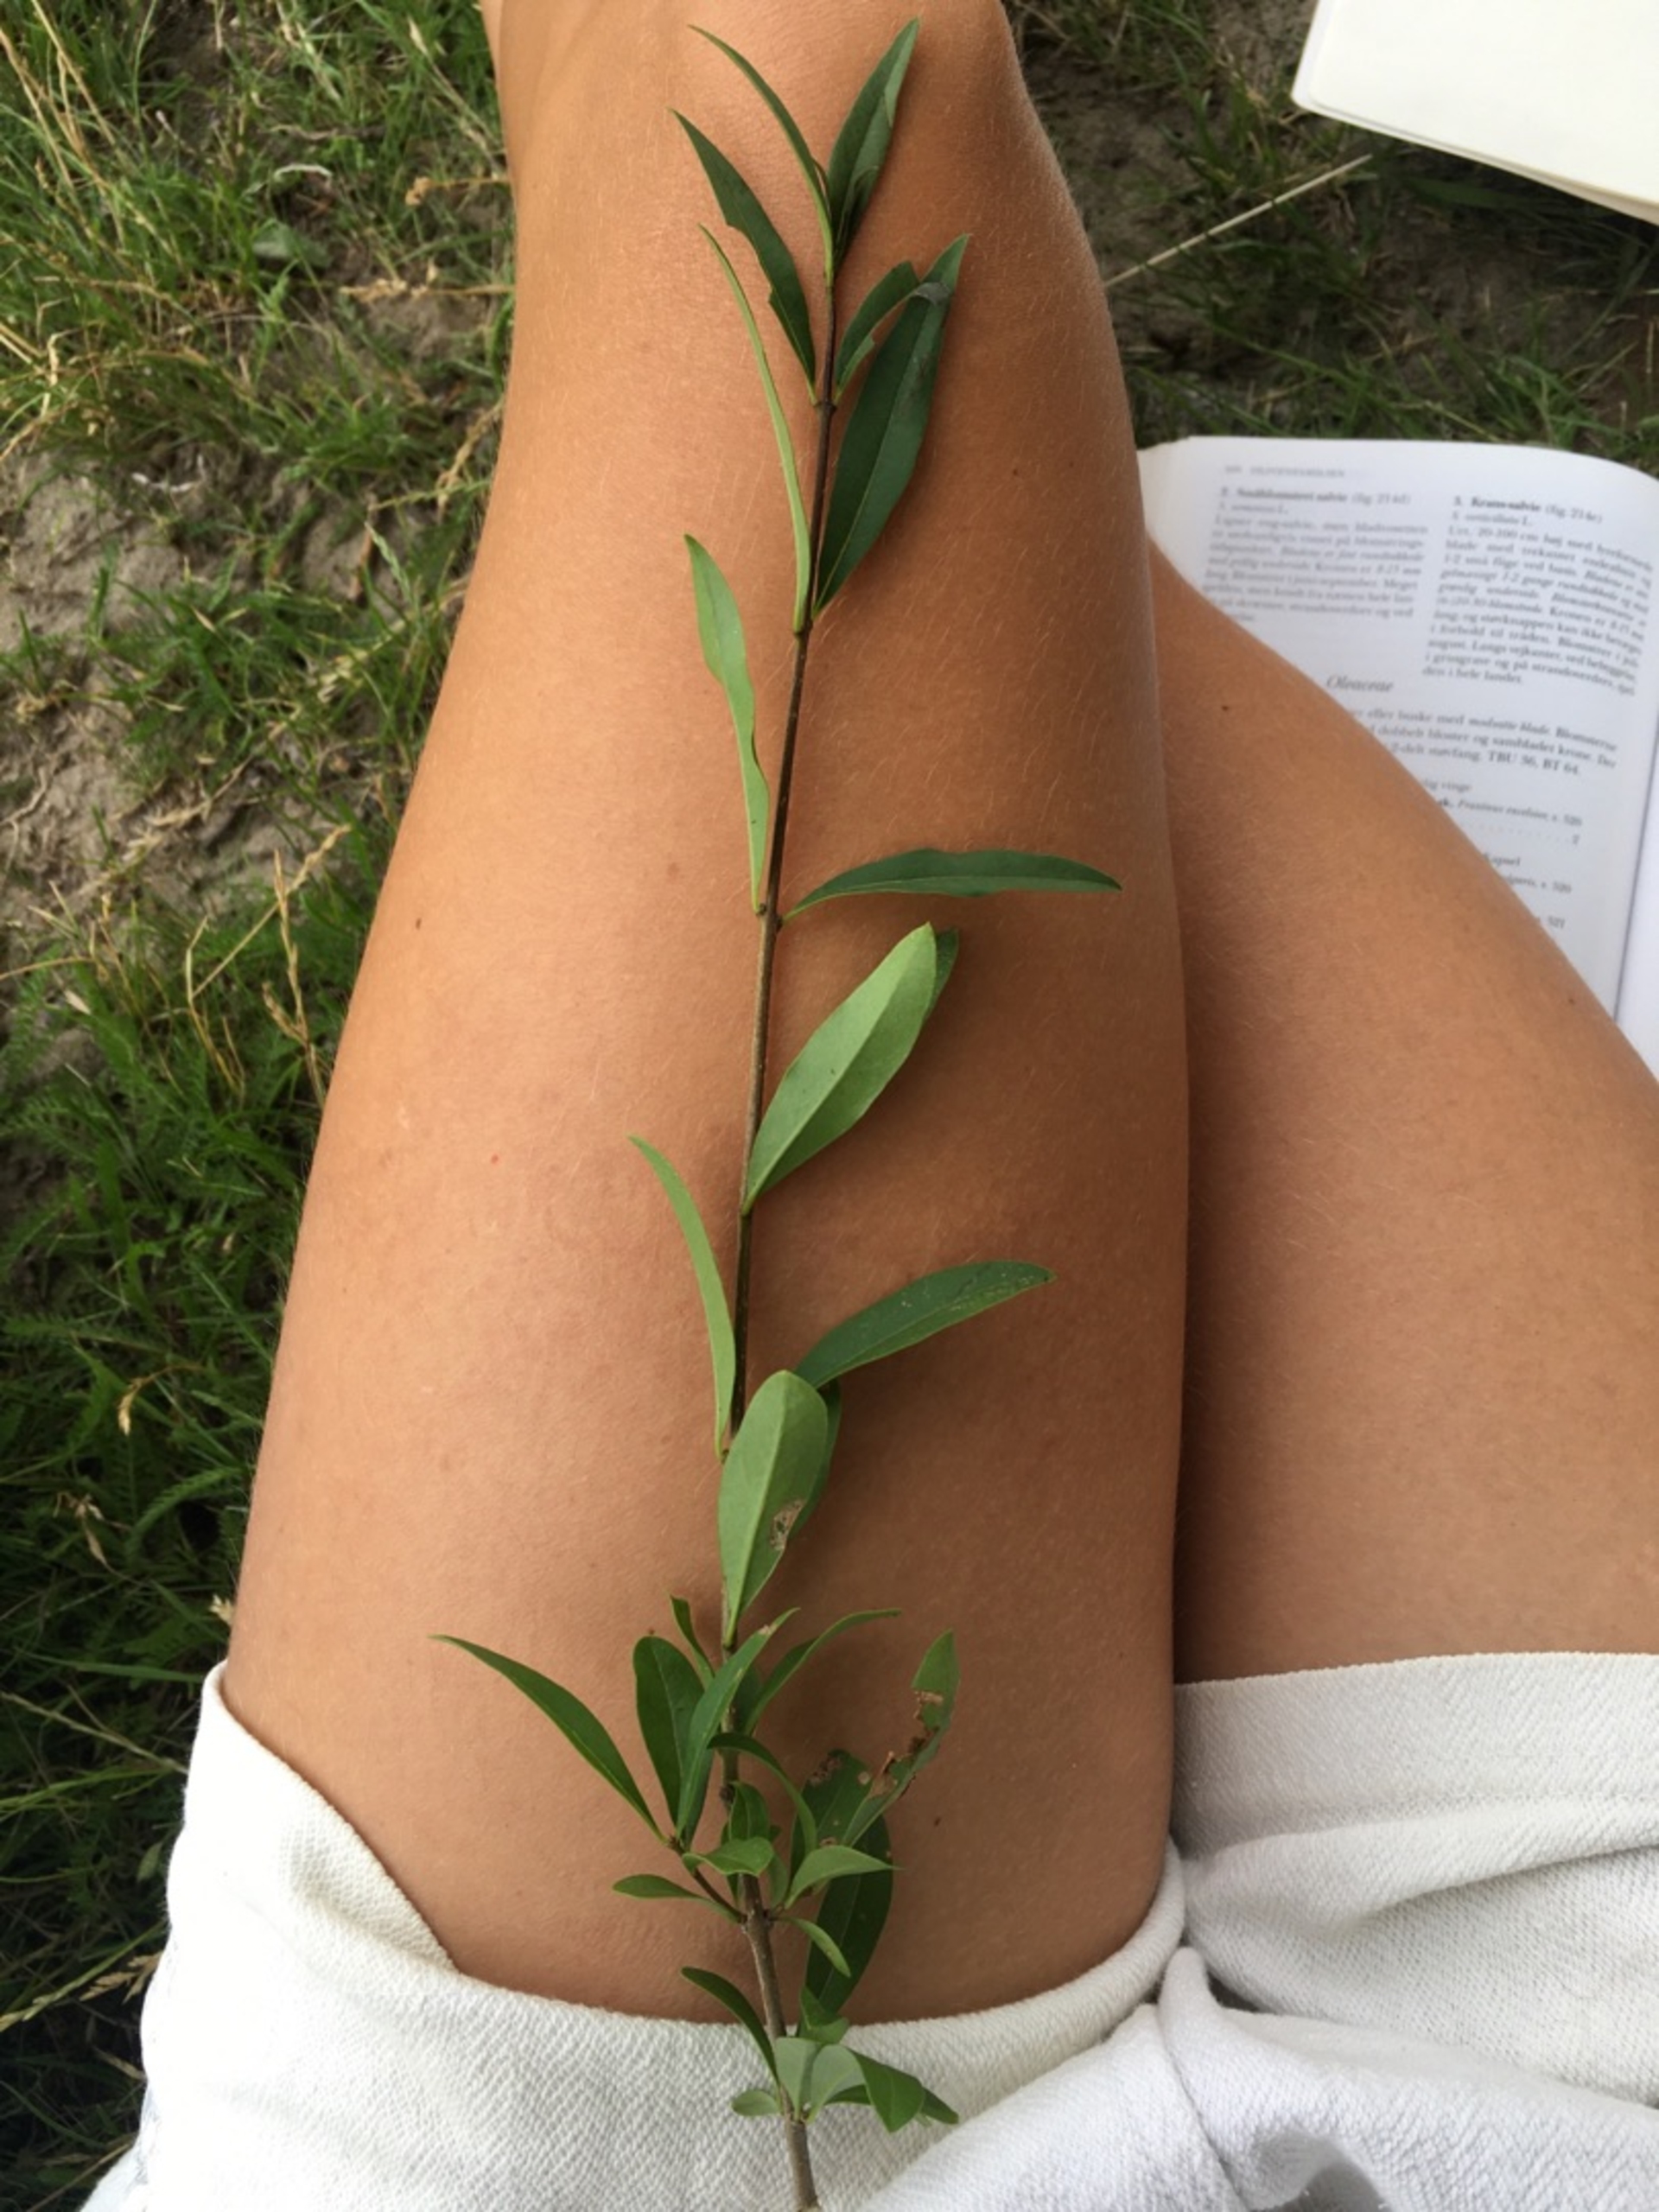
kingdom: Plantae
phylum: Tracheophyta
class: Magnoliopsida
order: Lamiales
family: Oleaceae
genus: Ligustrum
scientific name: Ligustrum vulgare
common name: Liguster
